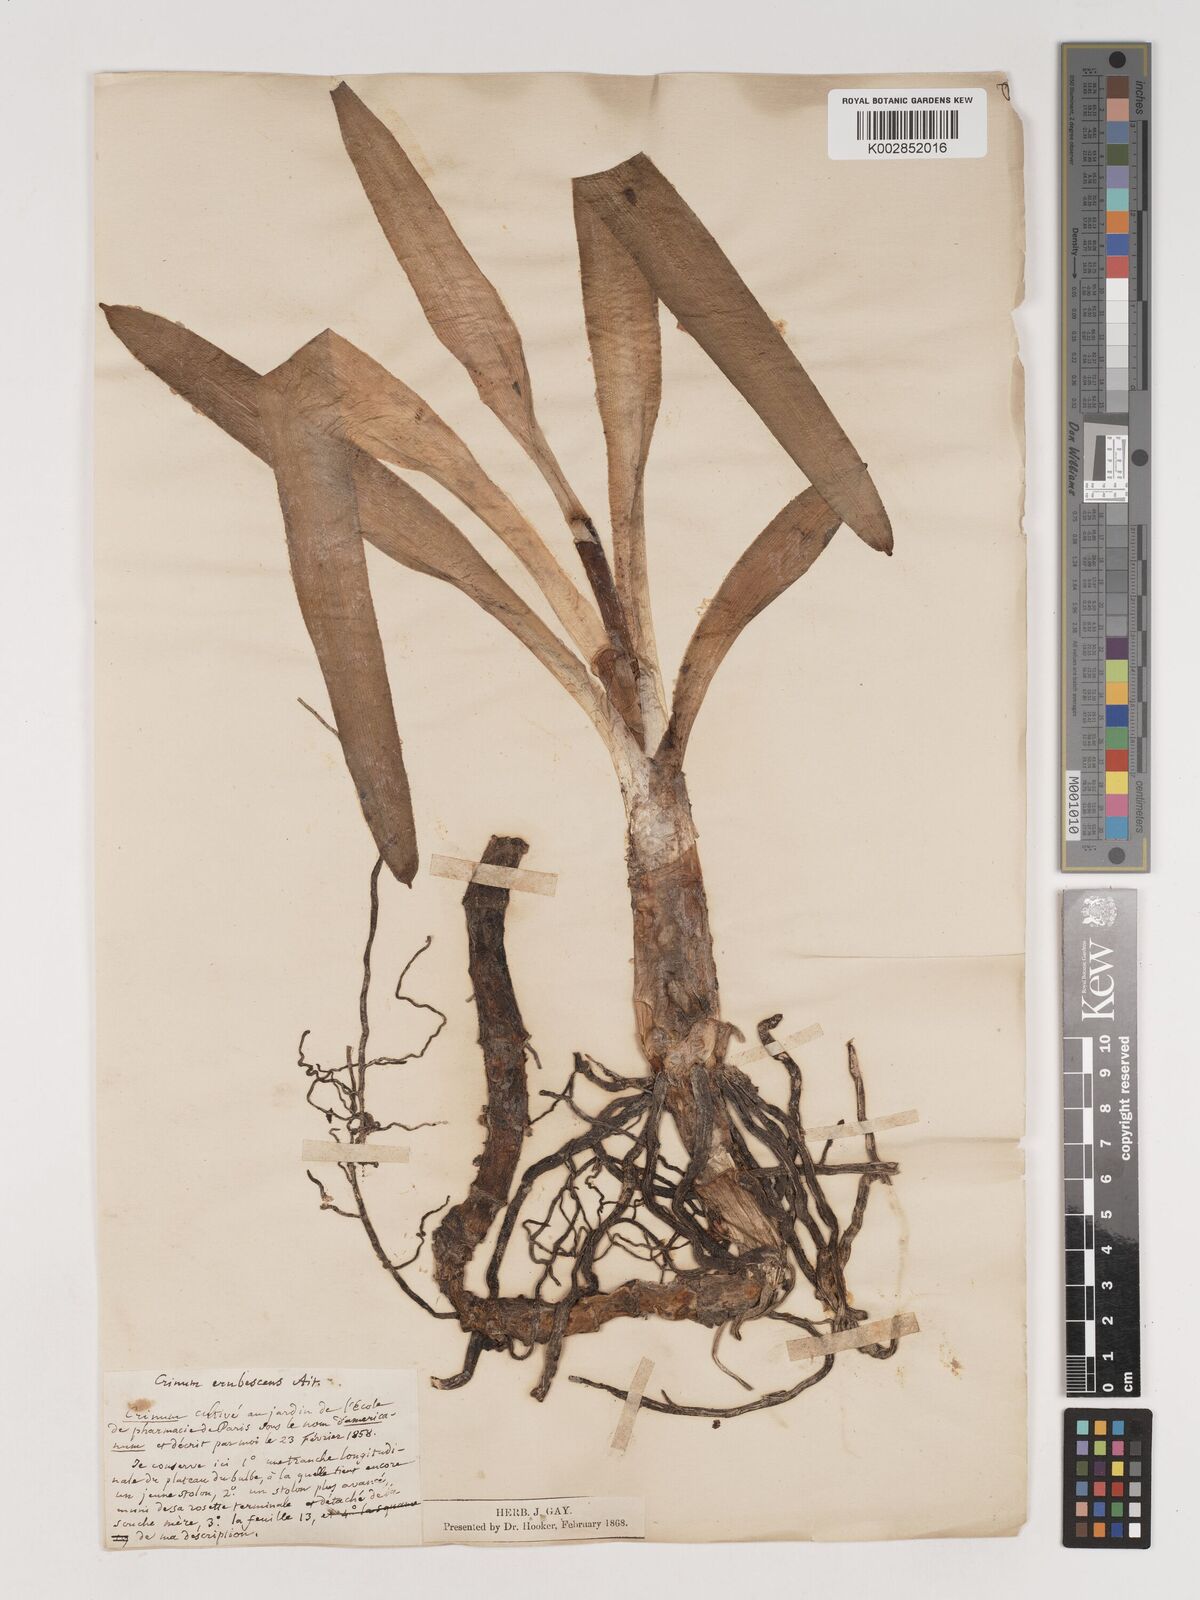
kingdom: Plantae
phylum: Tracheophyta
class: Liliopsida
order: Asparagales
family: Amaryllidaceae
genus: Crinum
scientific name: Crinum erubescens
